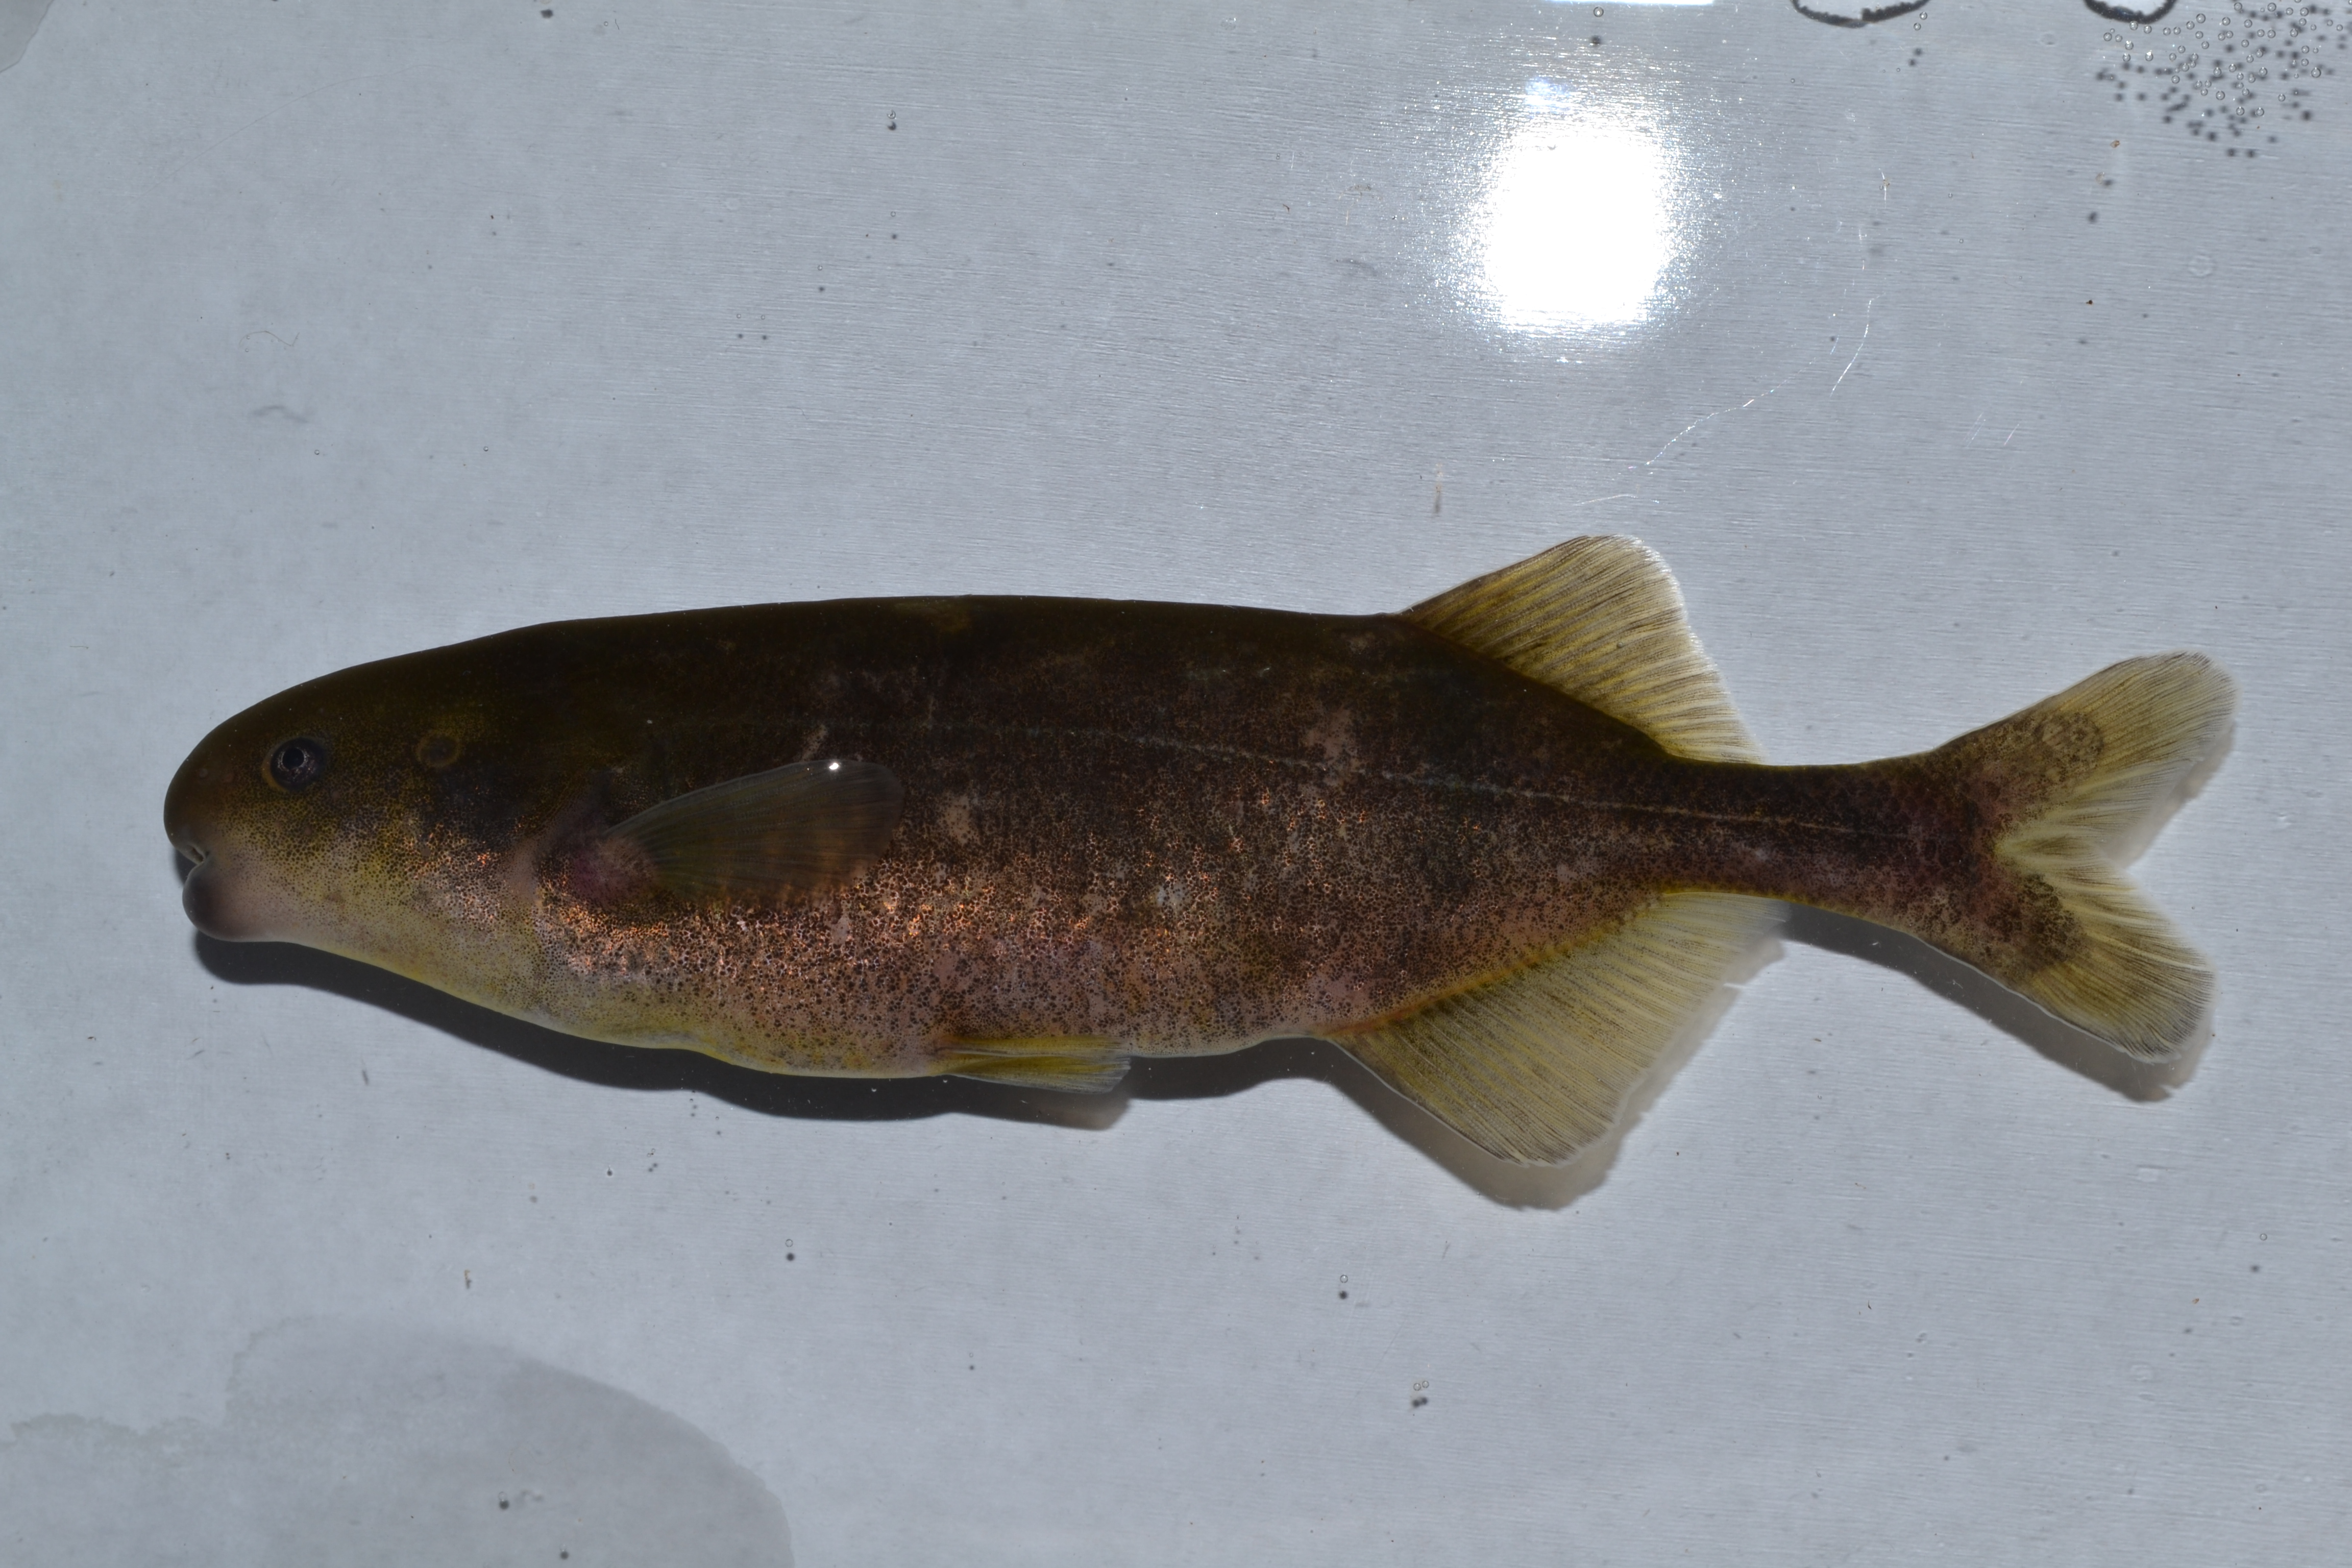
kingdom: Animalia
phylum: Chordata
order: Osteoglossiformes
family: Mormyridae
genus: Hippopotamyrus
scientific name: Hippopotamyrus
